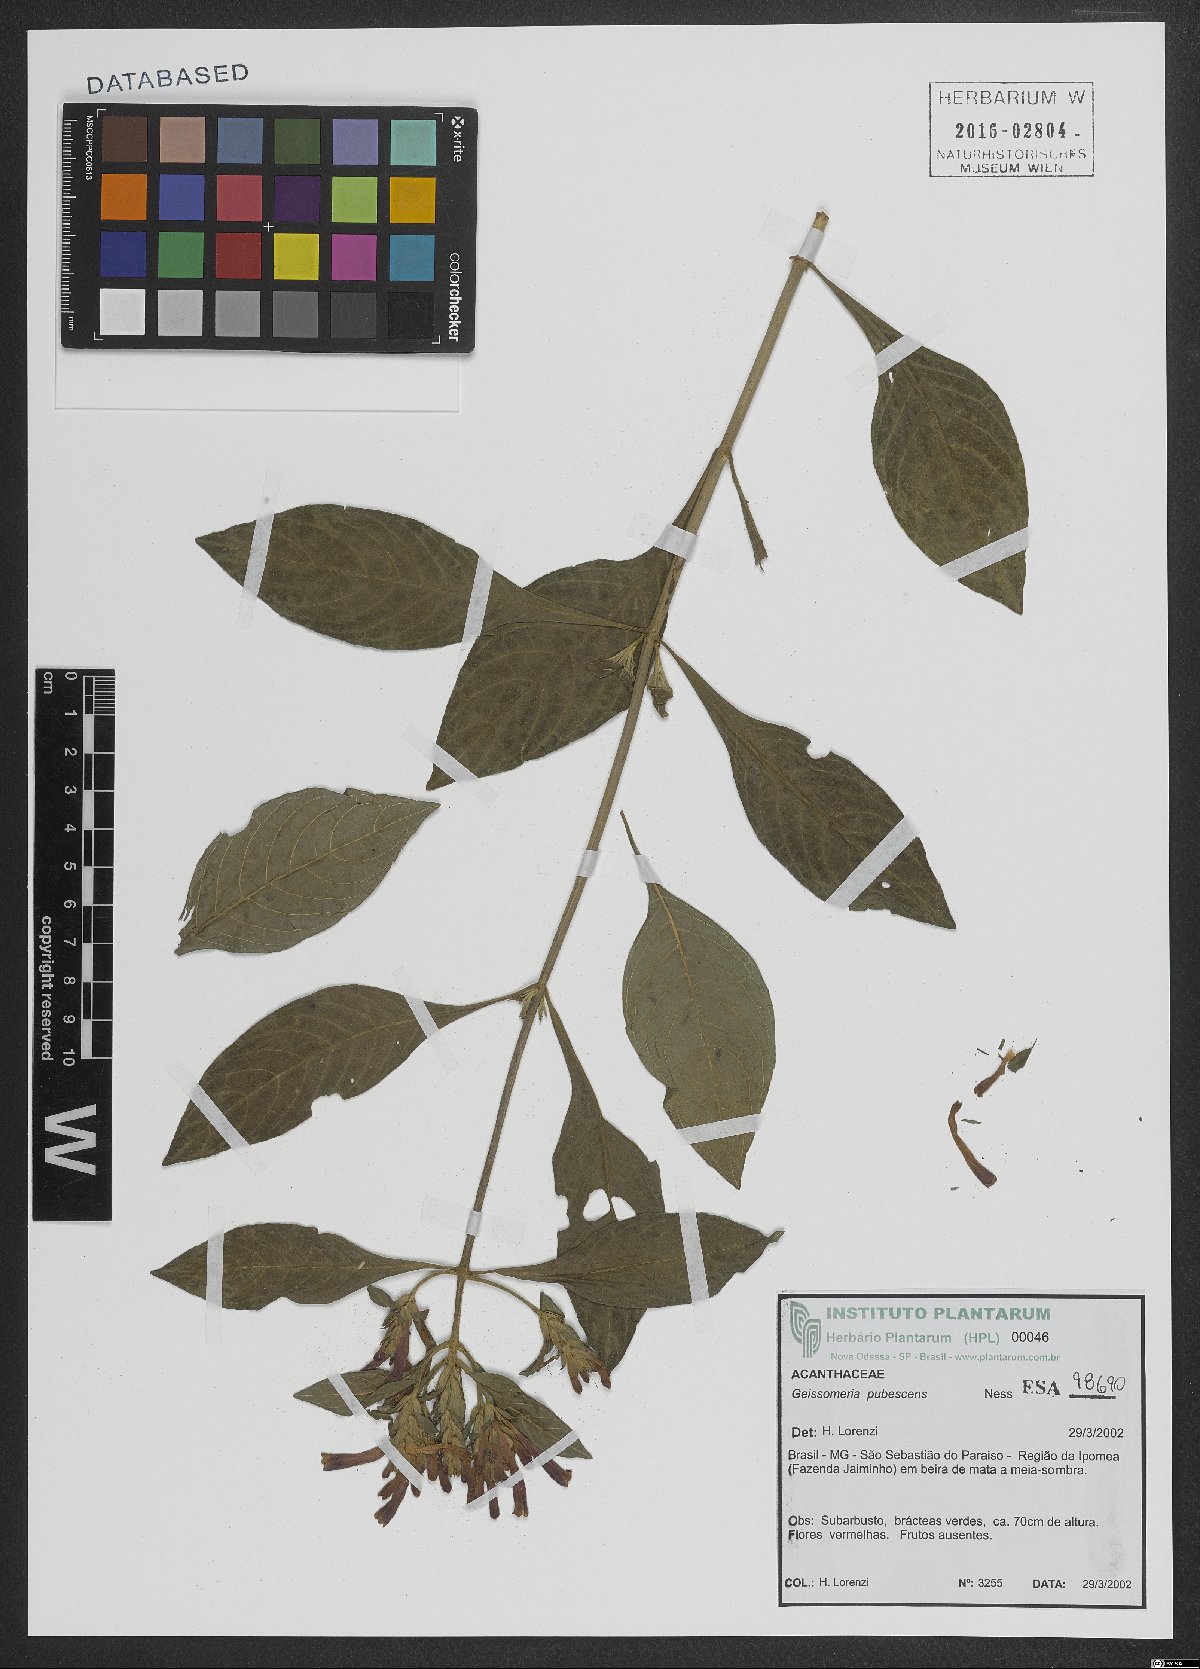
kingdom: Plantae
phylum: Tracheophyta
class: Magnoliopsida
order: Lamiales
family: Acanthaceae
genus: Aphelandra
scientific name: Aphelandra longiflora
